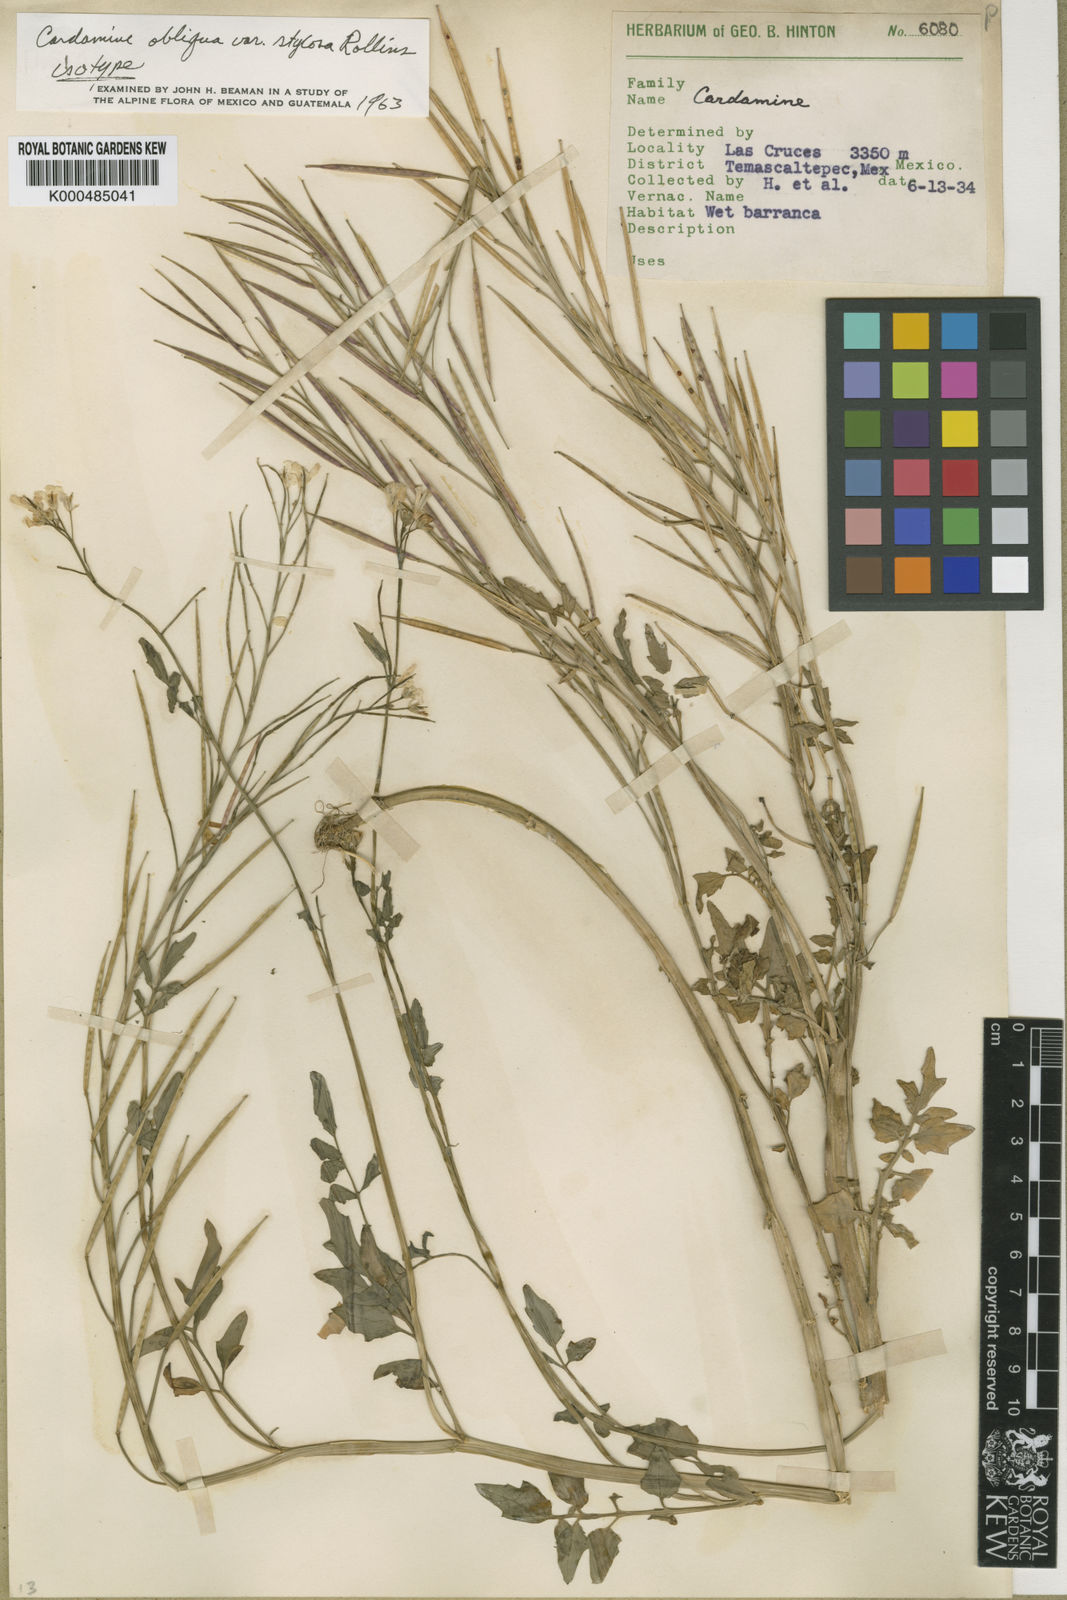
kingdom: Plantae
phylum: Tracheophyta
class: Magnoliopsida
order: Brassicales
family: Brassicaceae
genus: Cardamine
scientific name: Cardamine obliqua
